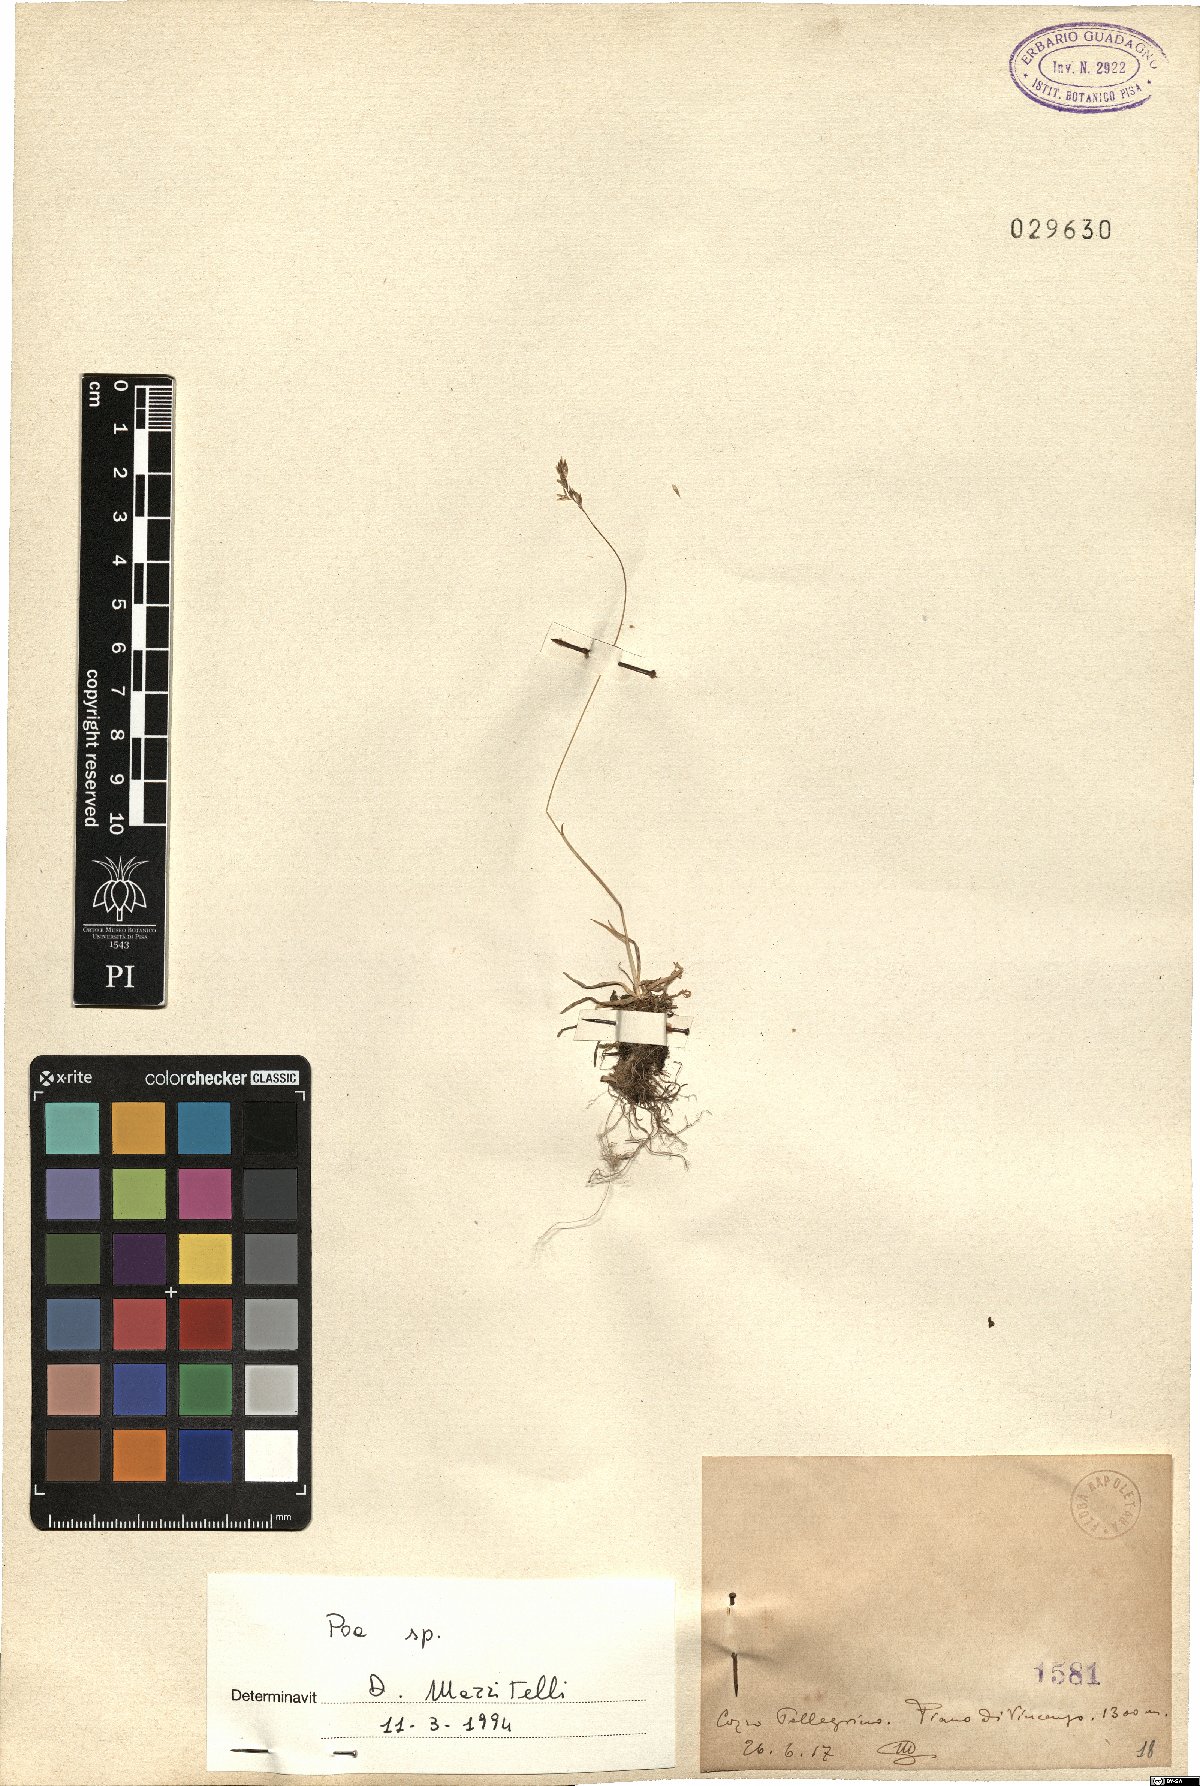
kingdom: Plantae
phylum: Tracheophyta
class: Liliopsida
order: Poales
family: Poaceae
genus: Poa
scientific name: Poa
